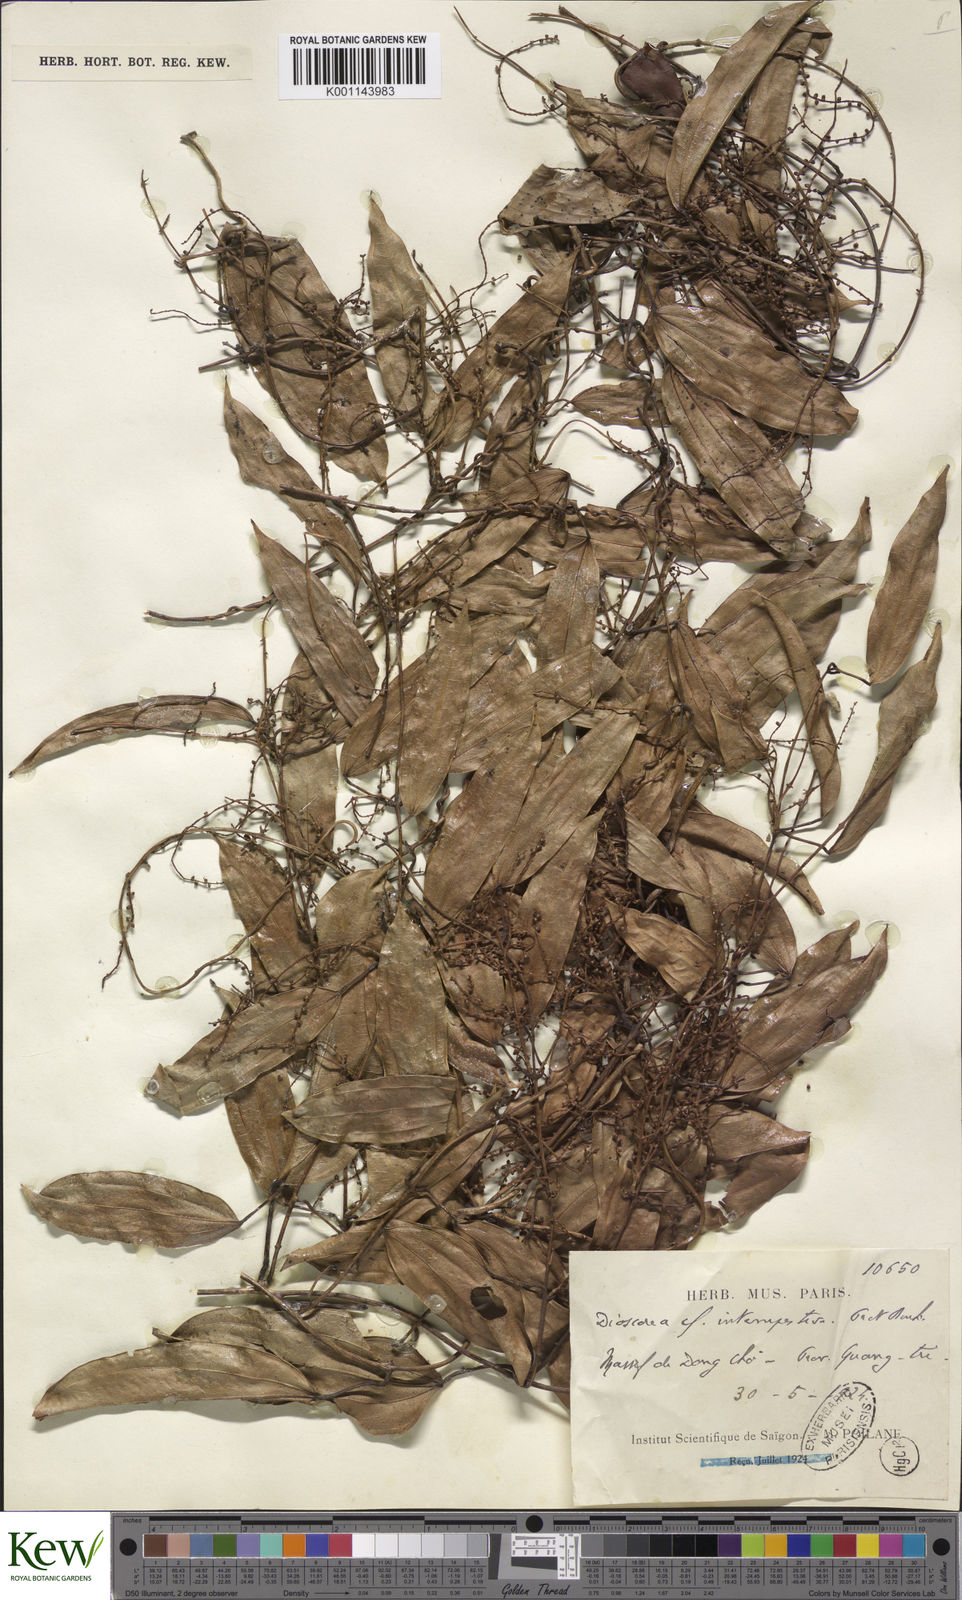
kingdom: Plantae
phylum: Tracheophyta
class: Liliopsida
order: Dioscoreales
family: Dioscoreaceae
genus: Dioscorea
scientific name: Dioscorea cirrhosa
